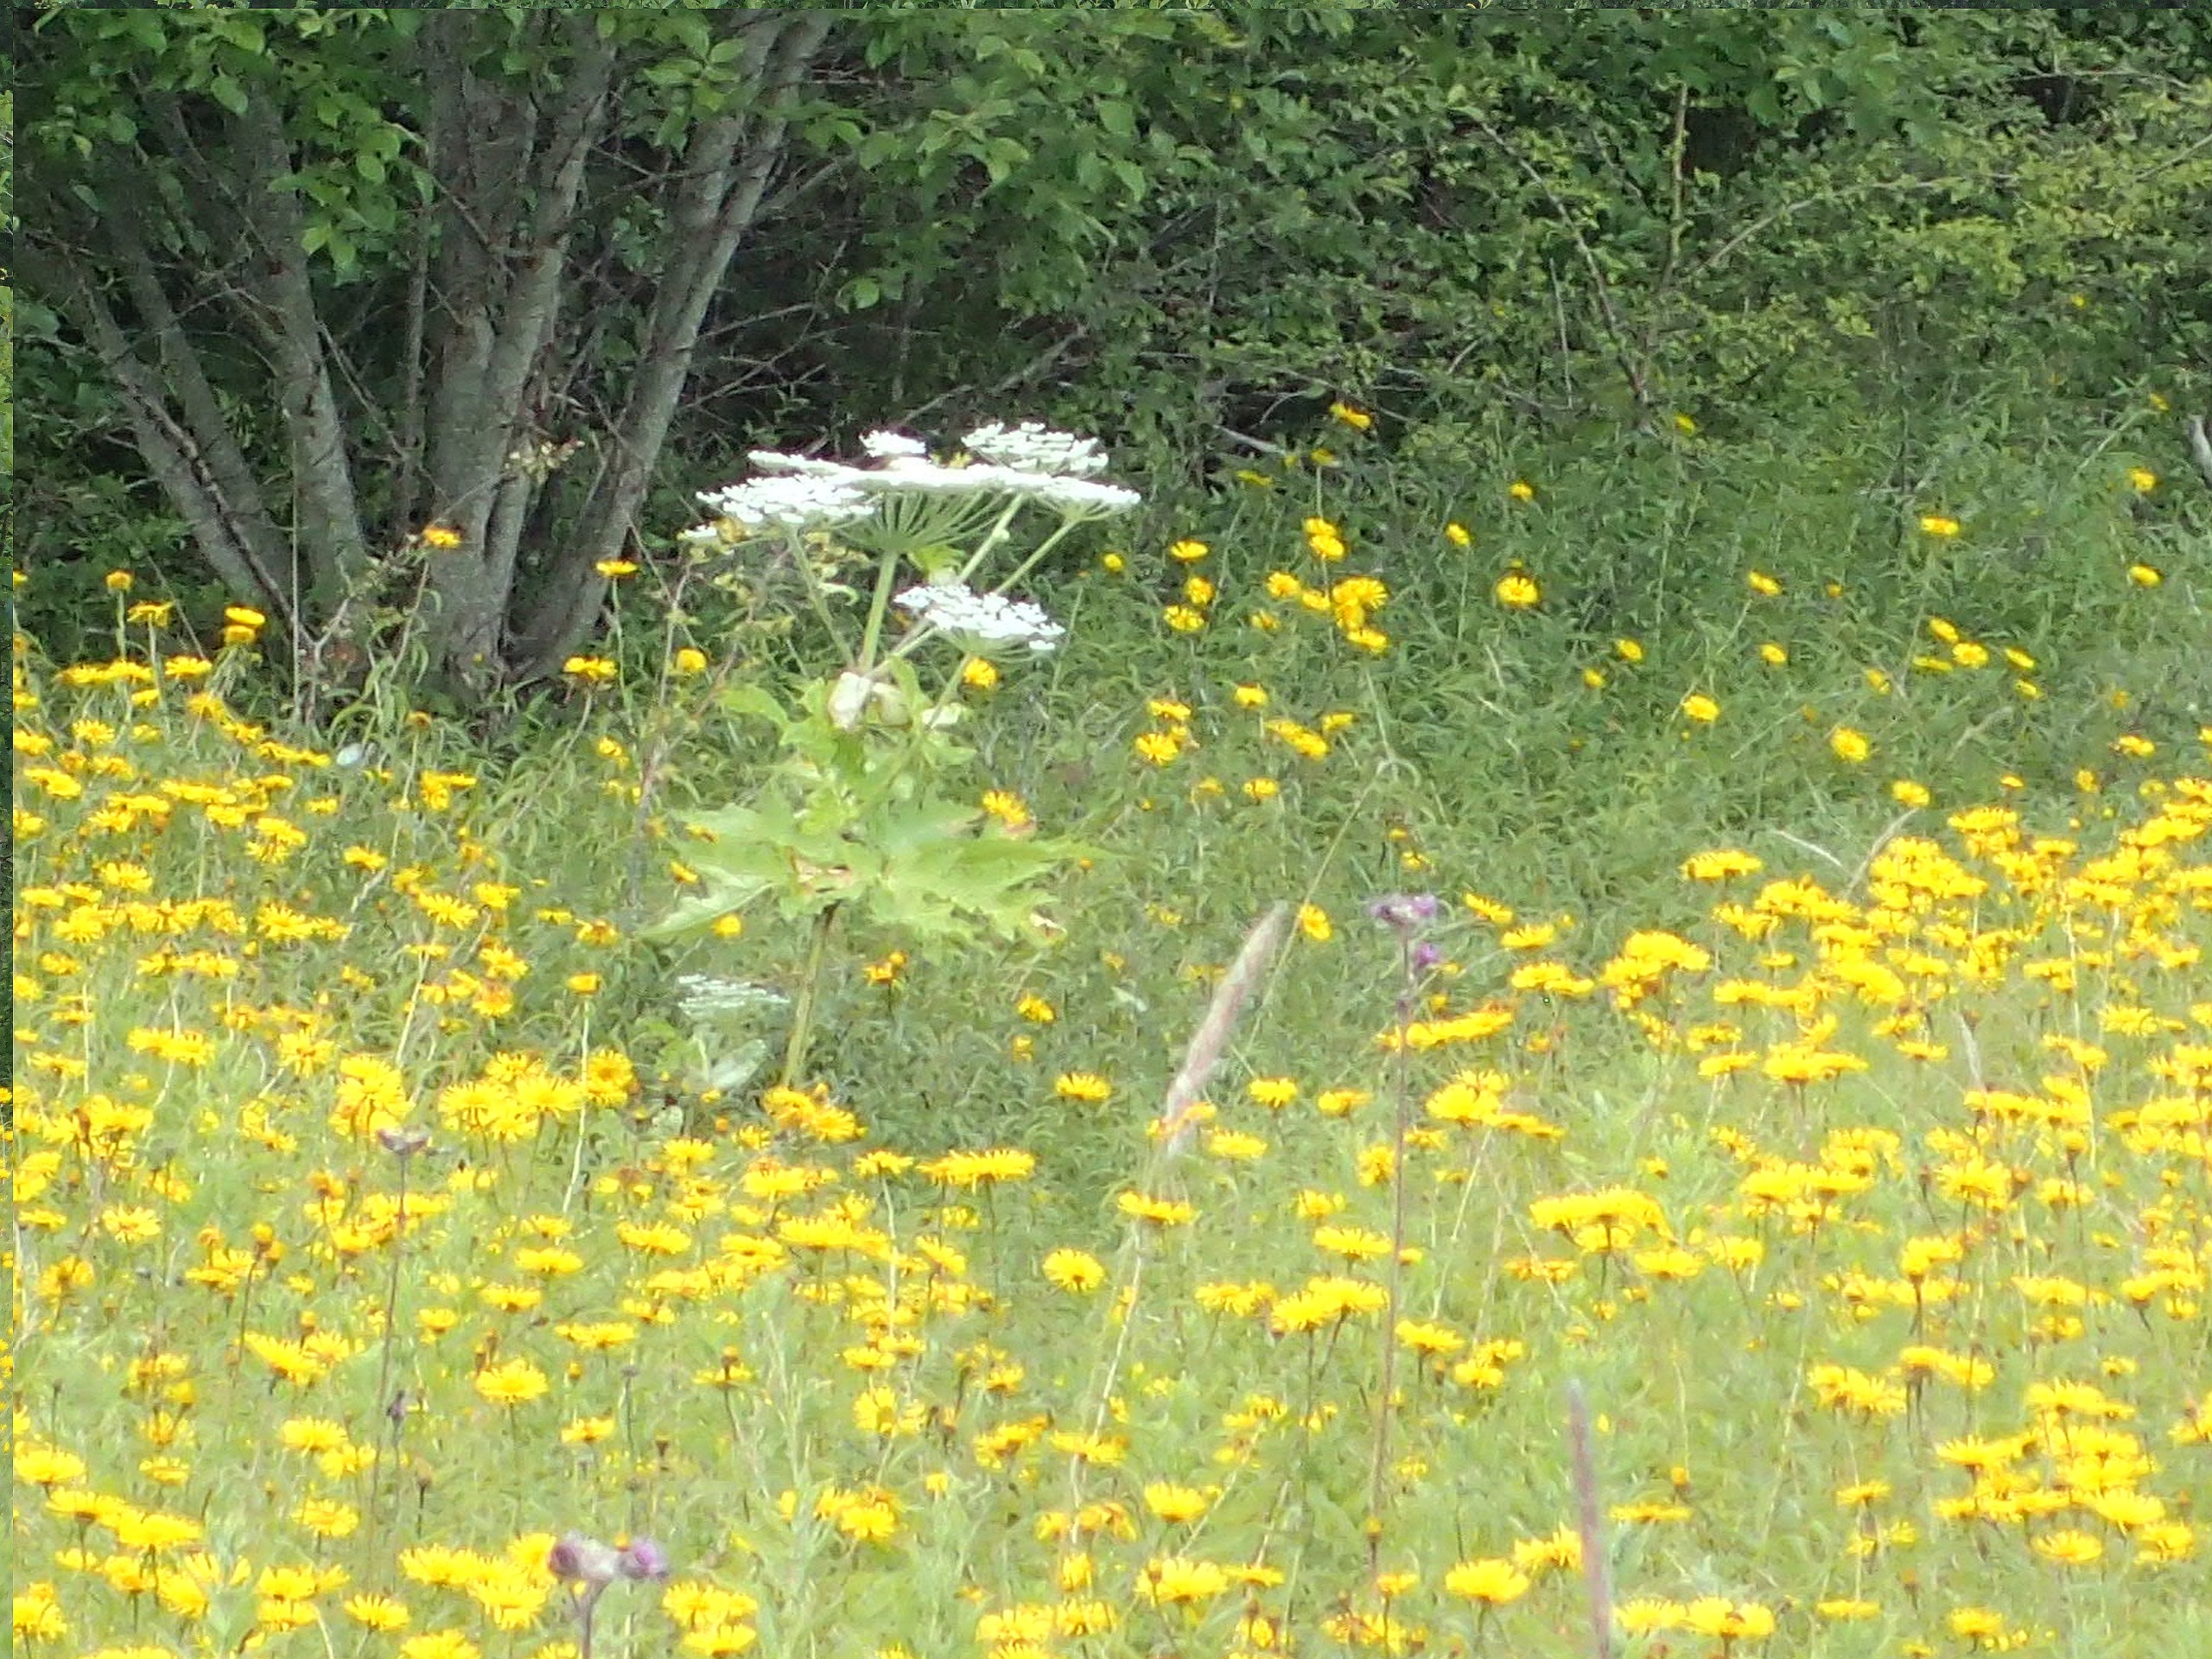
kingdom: Plantae
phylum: Tracheophyta
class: Magnoliopsida
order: Apiales
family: Apiaceae
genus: Heracleum
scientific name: Heracleum mantegazzianum
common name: Kæmpe-bjørneklo
